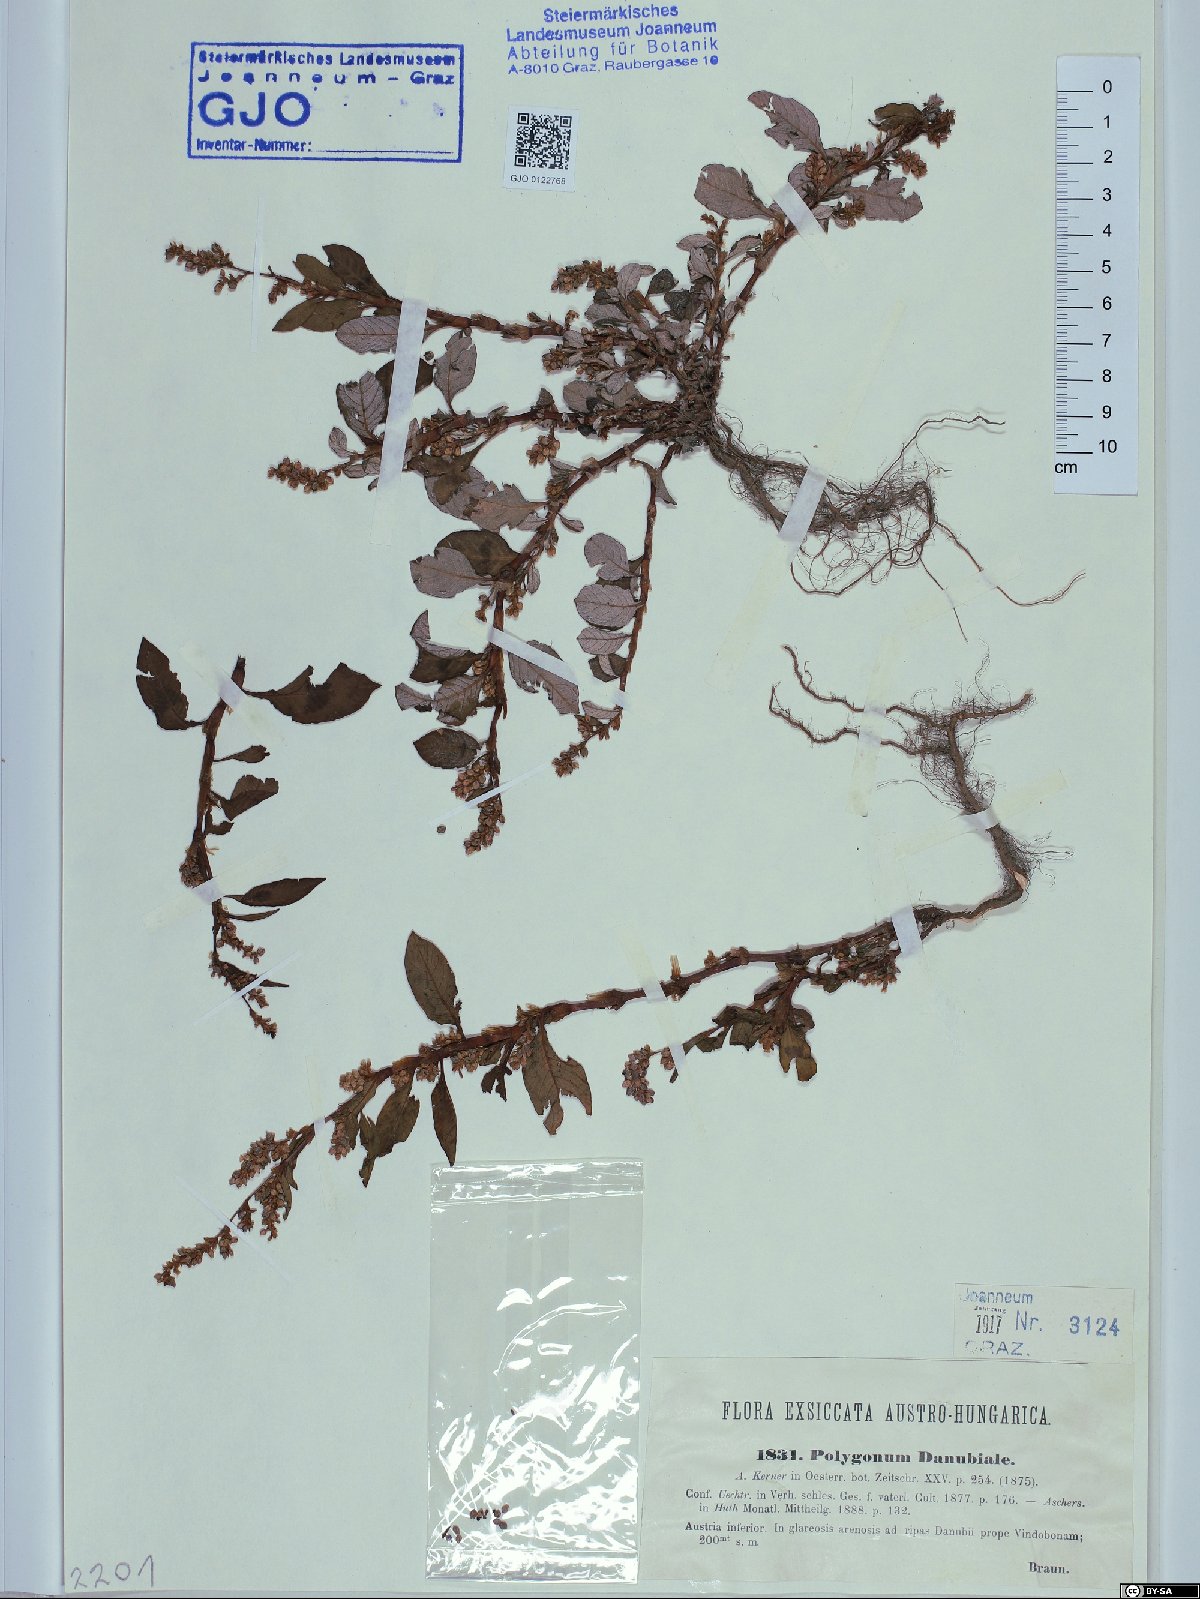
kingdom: Plantae
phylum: Tracheophyta
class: Magnoliopsida
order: Caryophyllales
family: Polygonaceae
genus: Persicaria
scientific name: Persicaria lapathifolia
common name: Curlytop knotweed
